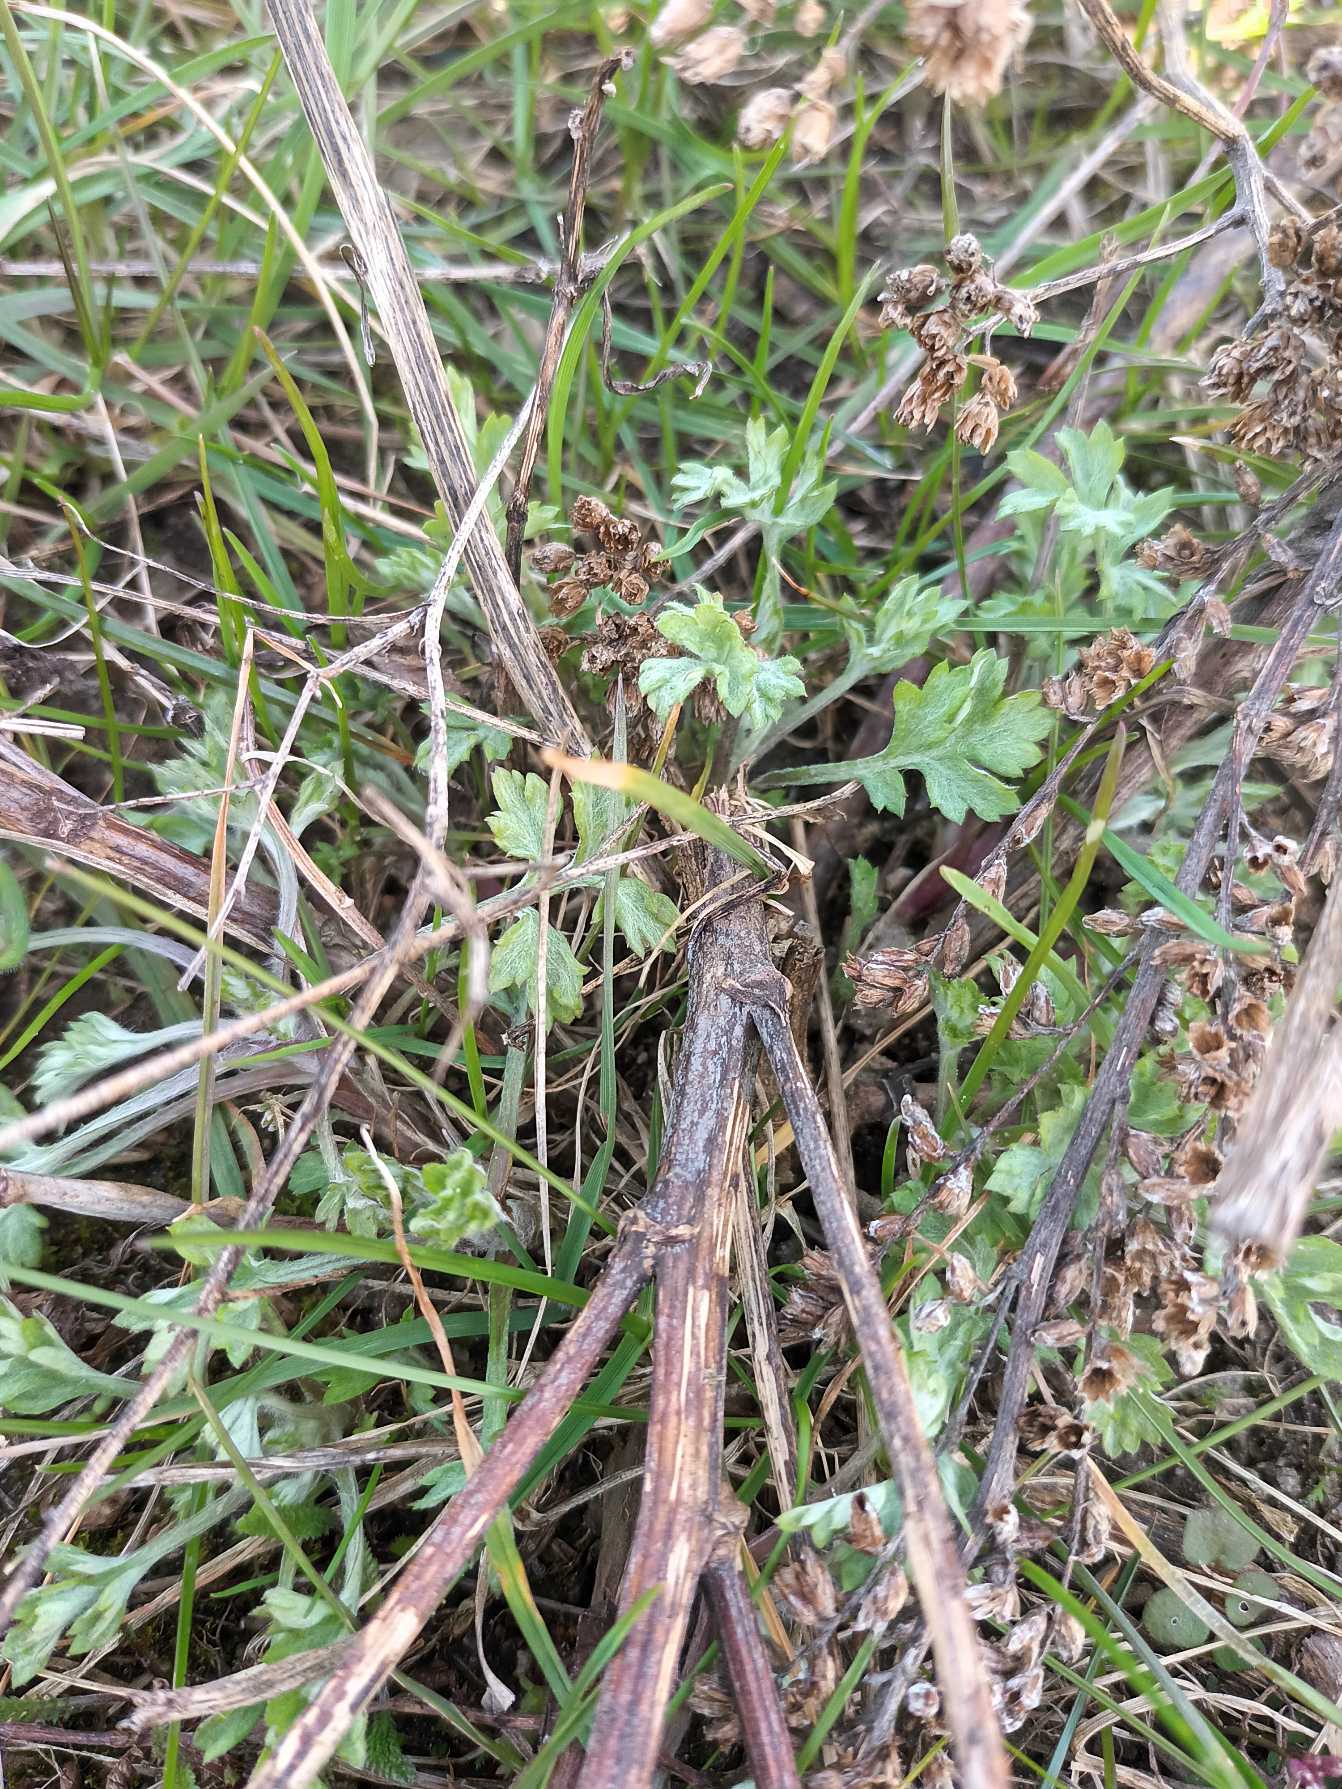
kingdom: Plantae
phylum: Tracheophyta
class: Magnoliopsida
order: Asterales
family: Asteraceae
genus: Artemisia
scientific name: Artemisia vulgaris
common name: Grå-bynke
